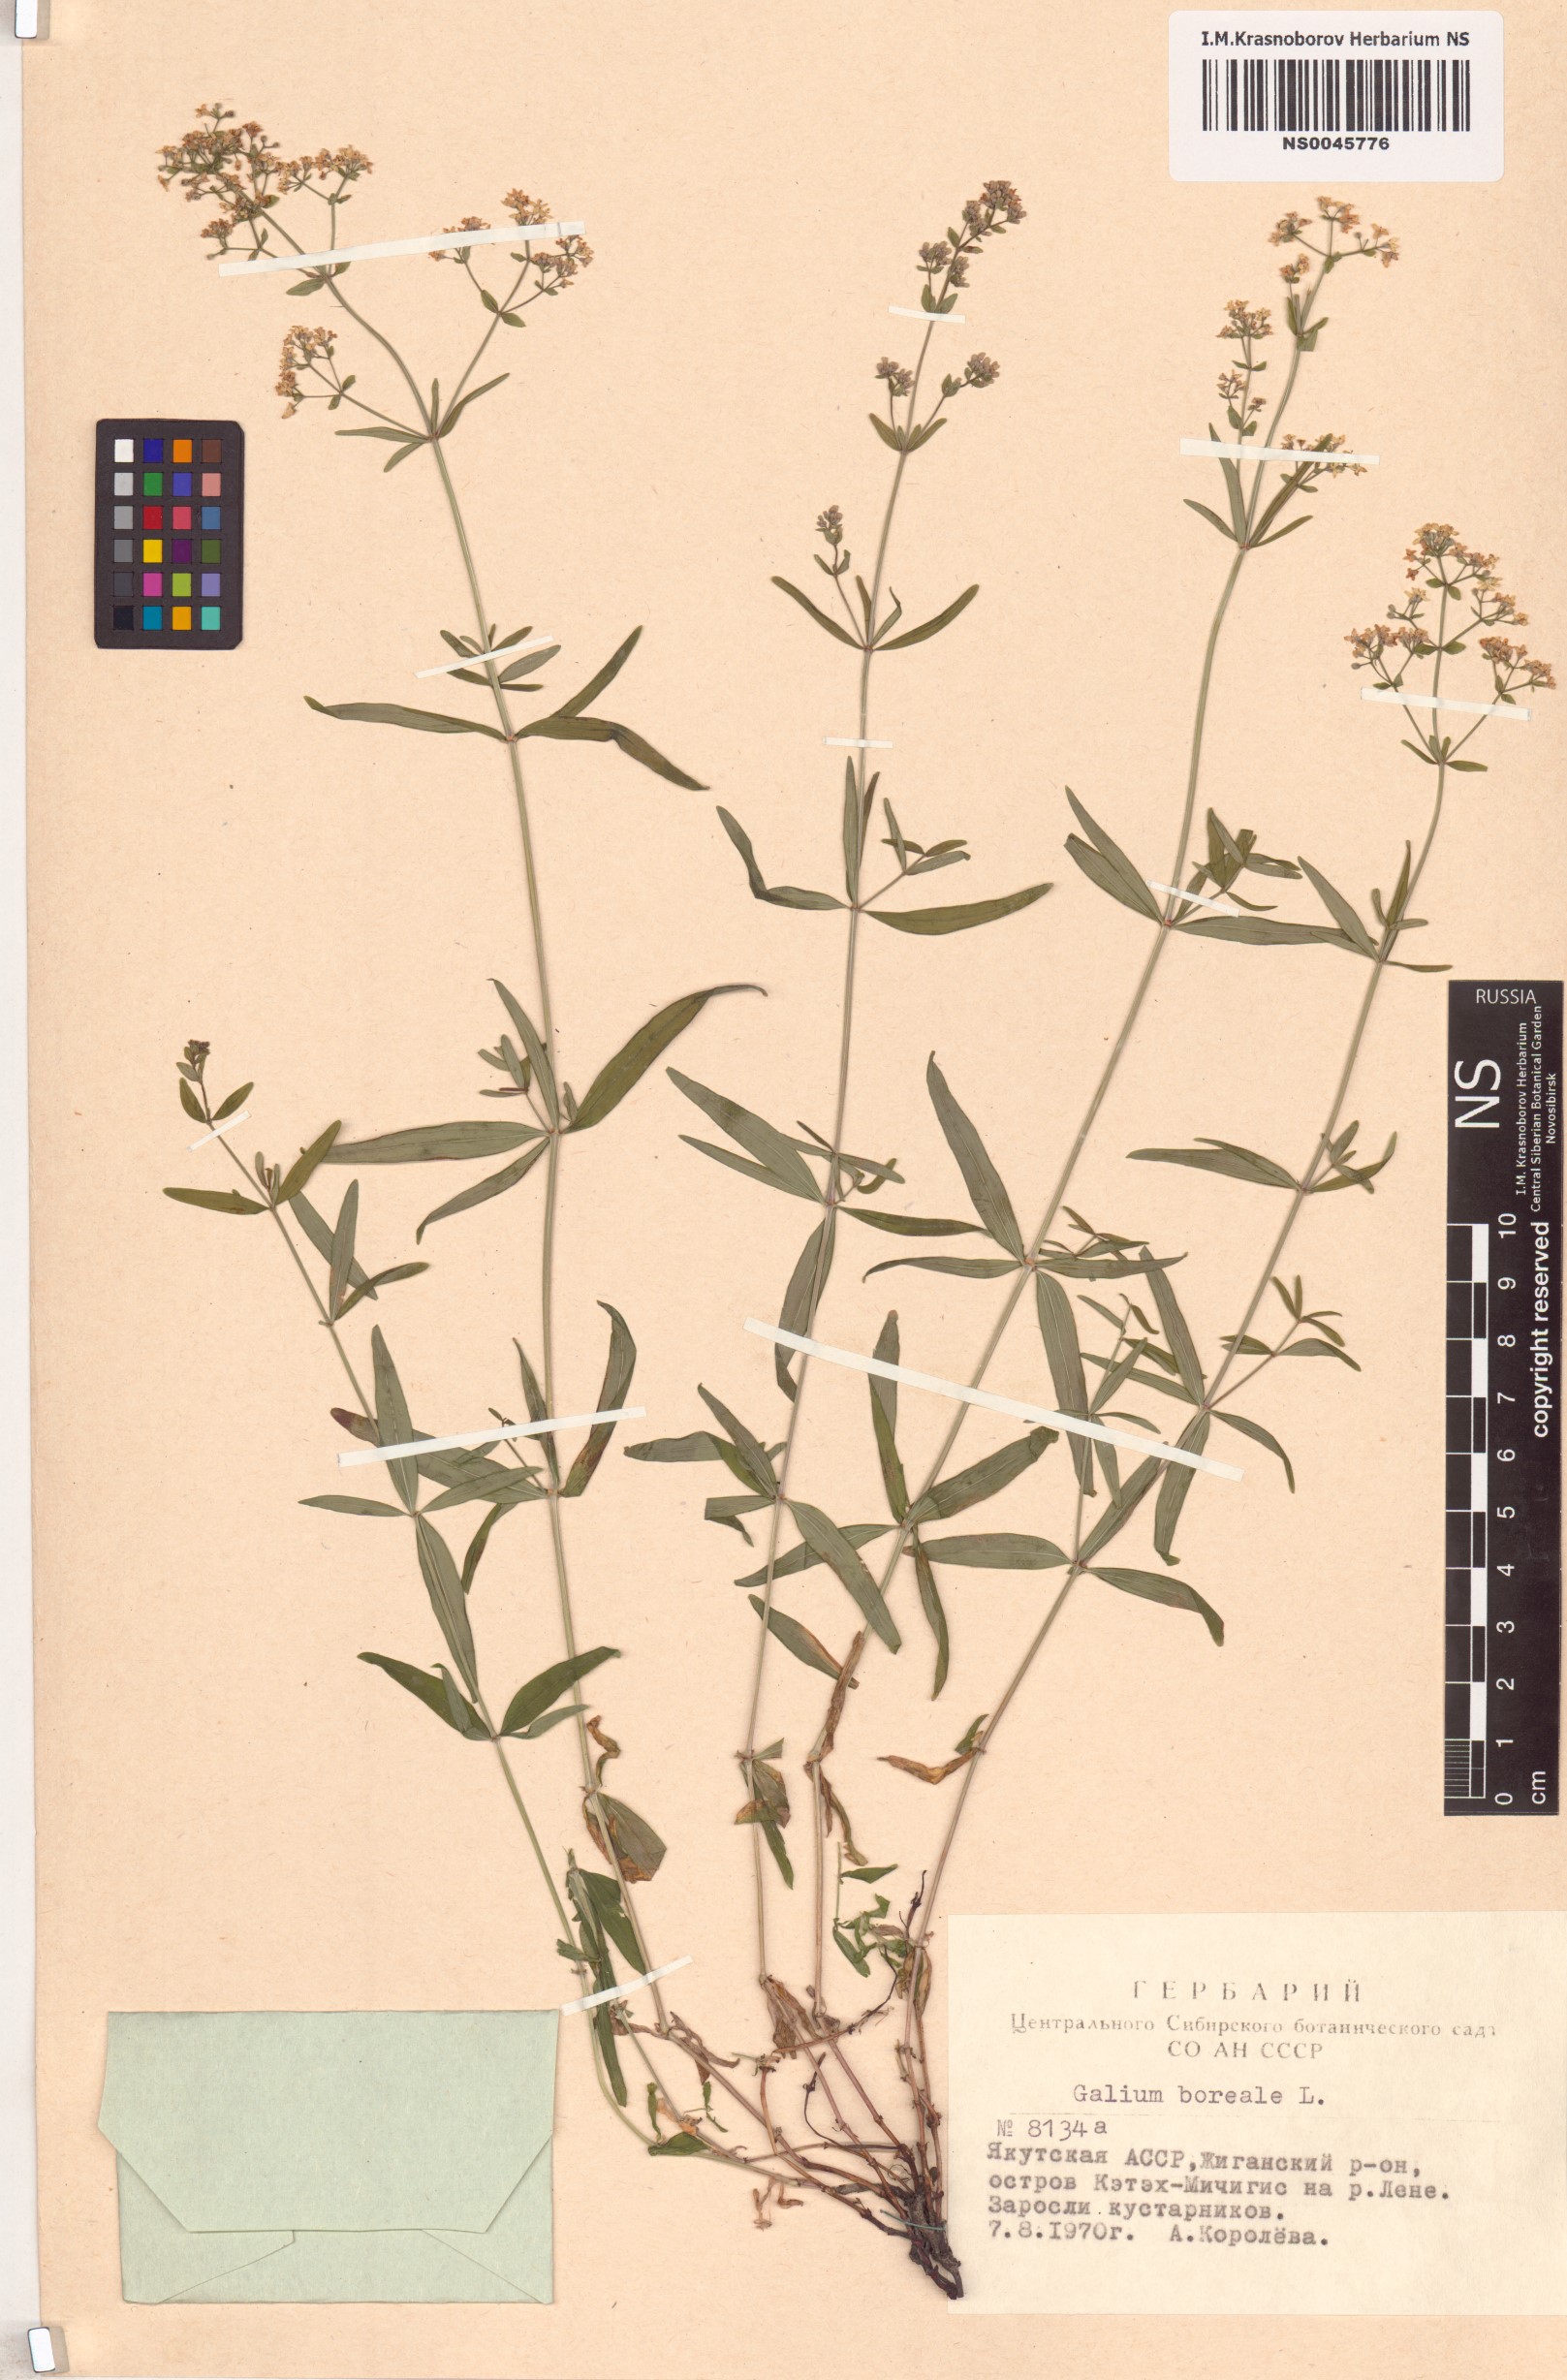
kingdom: Plantae
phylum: Tracheophyta
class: Magnoliopsida
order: Gentianales
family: Rubiaceae
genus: Galium
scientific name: Galium boreale
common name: Northern bedstraw
